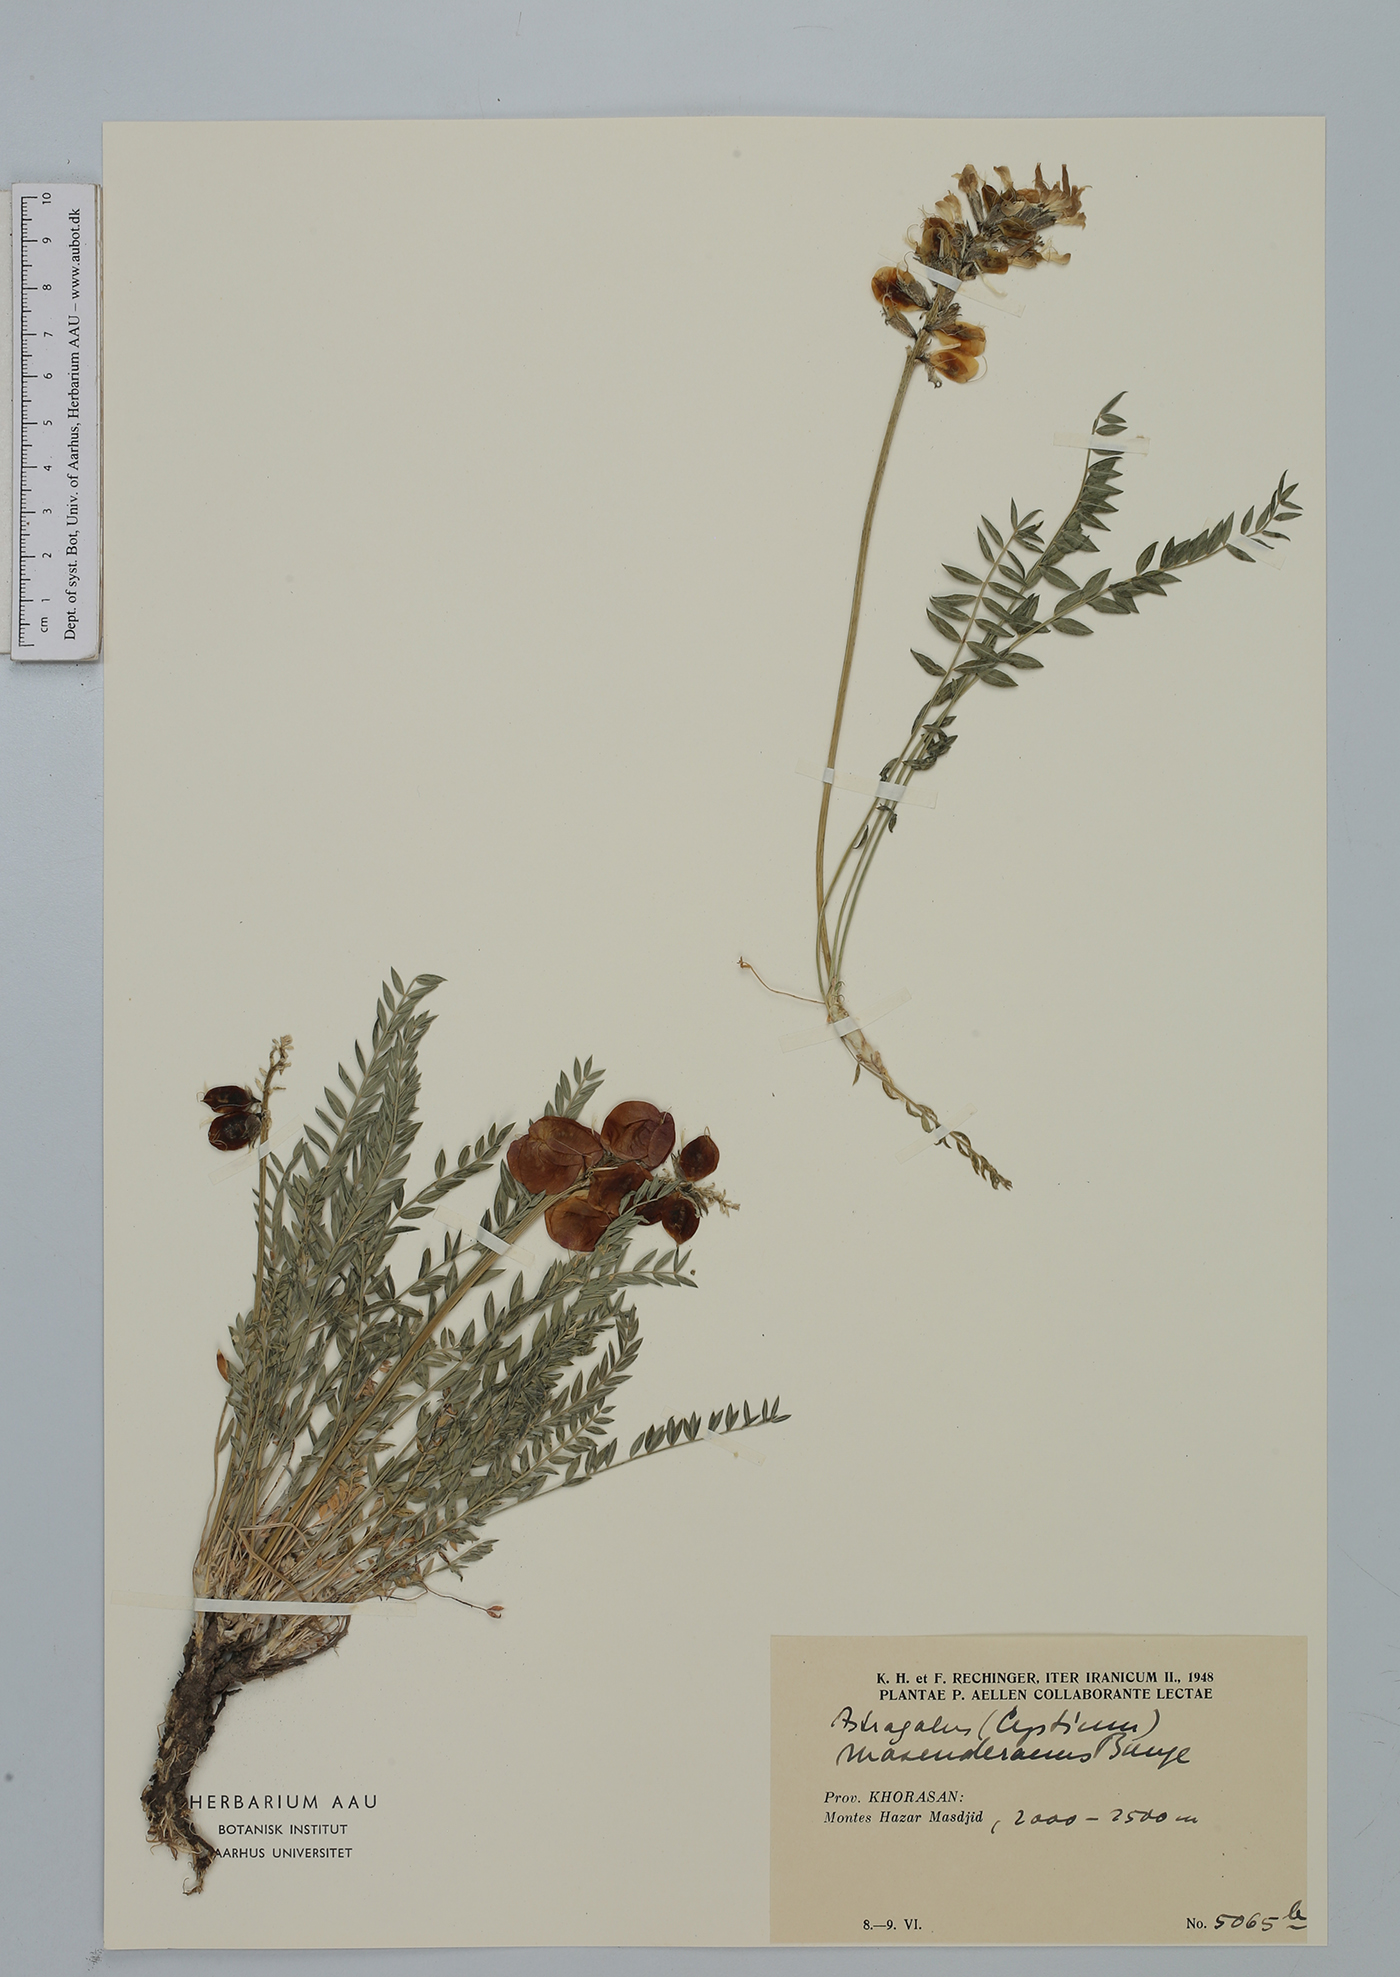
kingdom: Plantae
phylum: Tracheophyta
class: Magnoliopsida
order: Fabales
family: Fabaceae
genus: Astragalus
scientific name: Astragalus masanderanus
